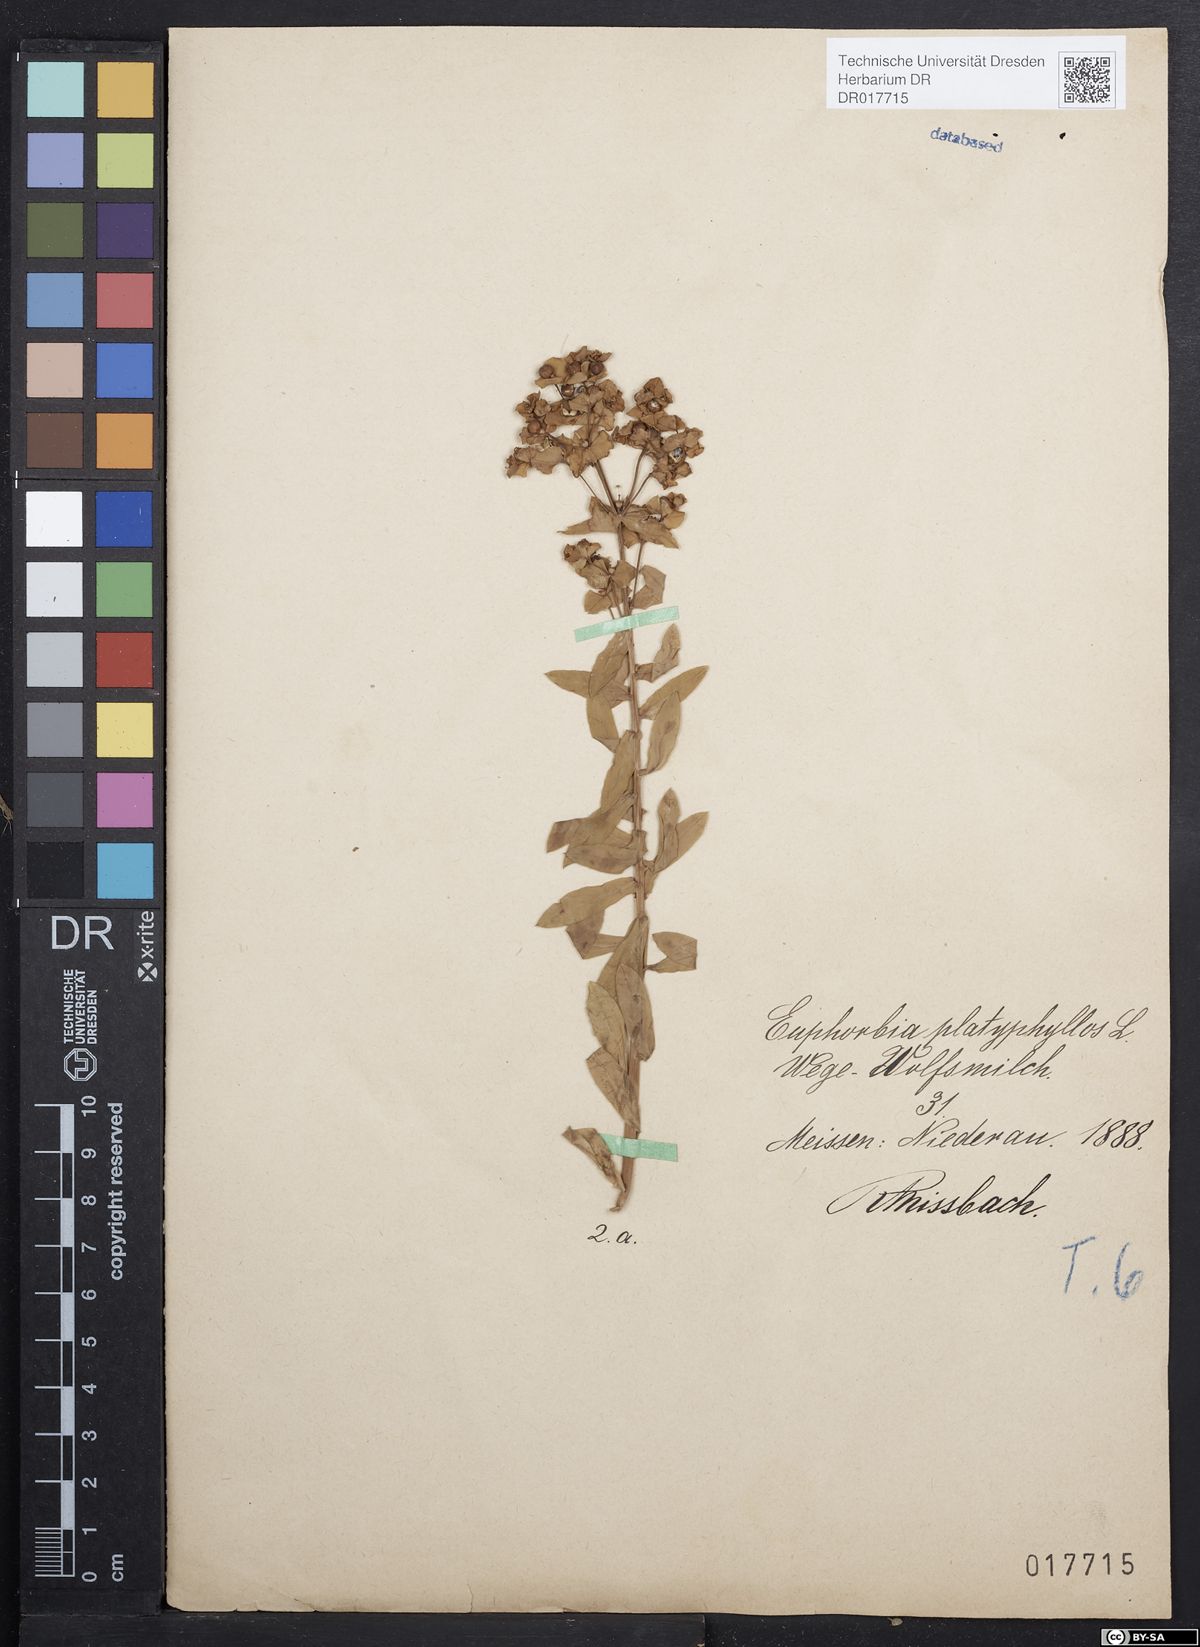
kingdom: Plantae
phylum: Tracheophyta
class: Magnoliopsida
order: Malpighiales
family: Euphorbiaceae
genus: Euphorbia
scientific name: Euphorbia platyphyllos
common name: Broad-leaved spurge
